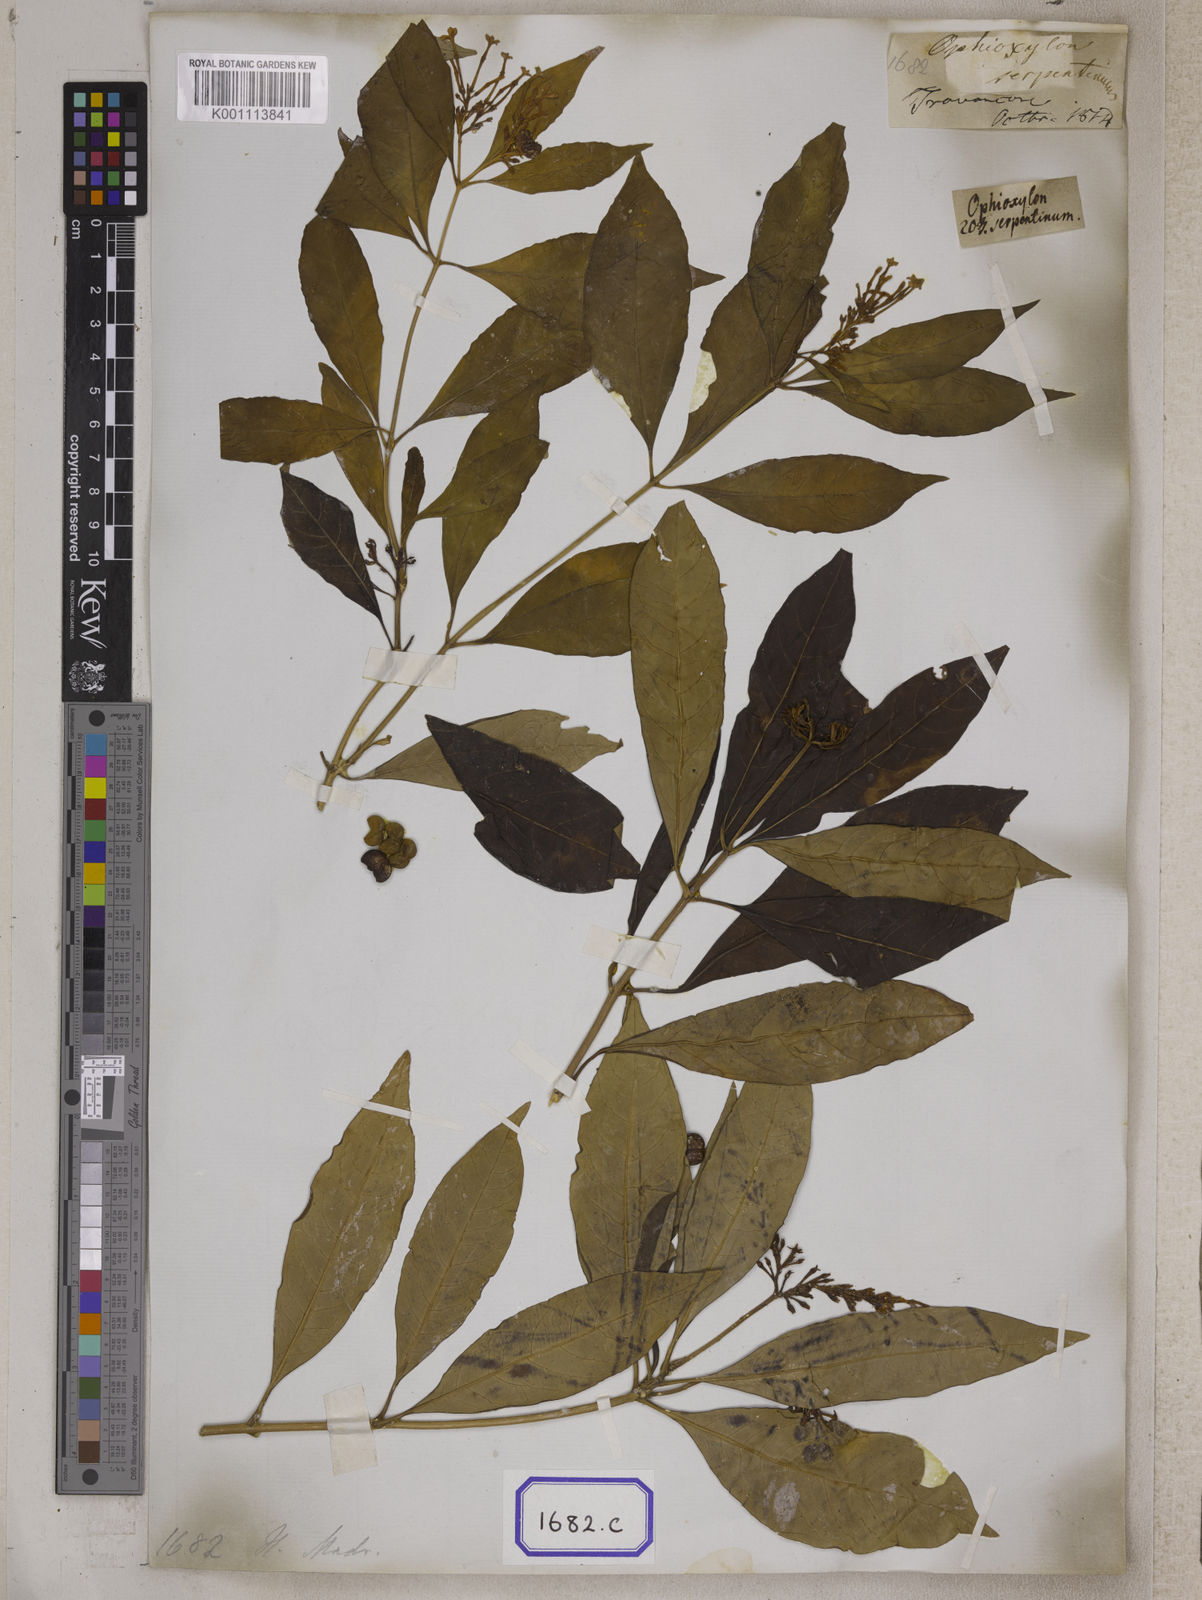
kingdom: Plantae
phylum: Tracheophyta
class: Magnoliopsida
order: Gentianales
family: Apocynaceae
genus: Rauvolfia
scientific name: Rauvolfia serpentina
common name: Ajmaline
